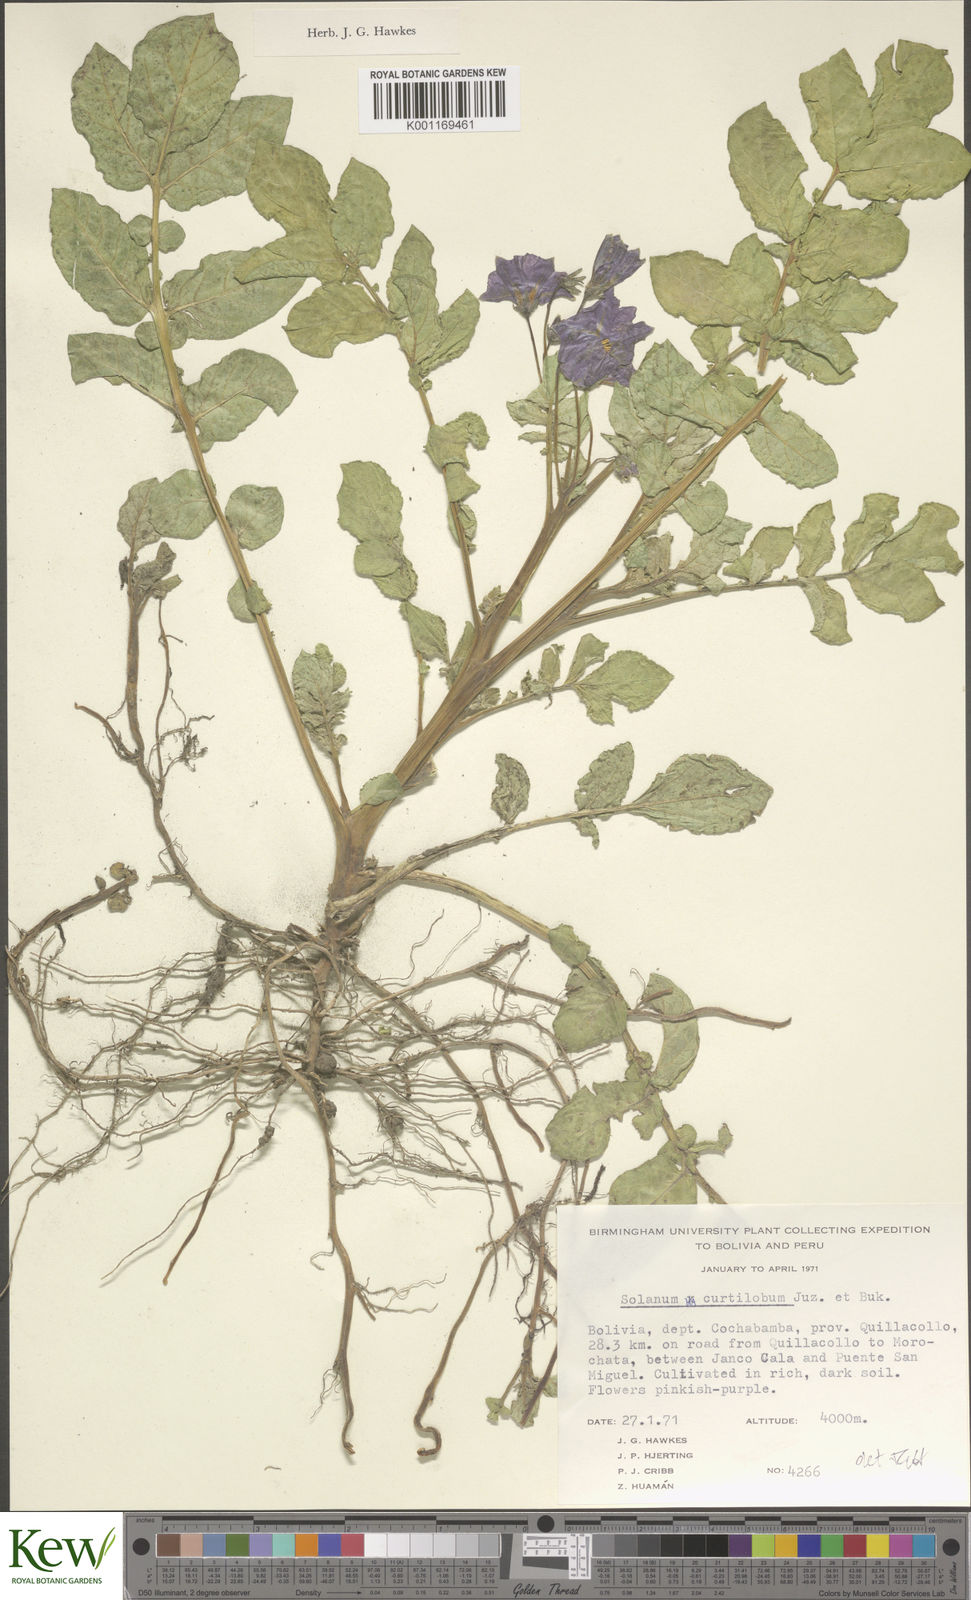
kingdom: Plantae
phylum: Tracheophyta
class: Magnoliopsida
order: Solanales
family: Solanaceae
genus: Solanum
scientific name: Solanum curtilobum
